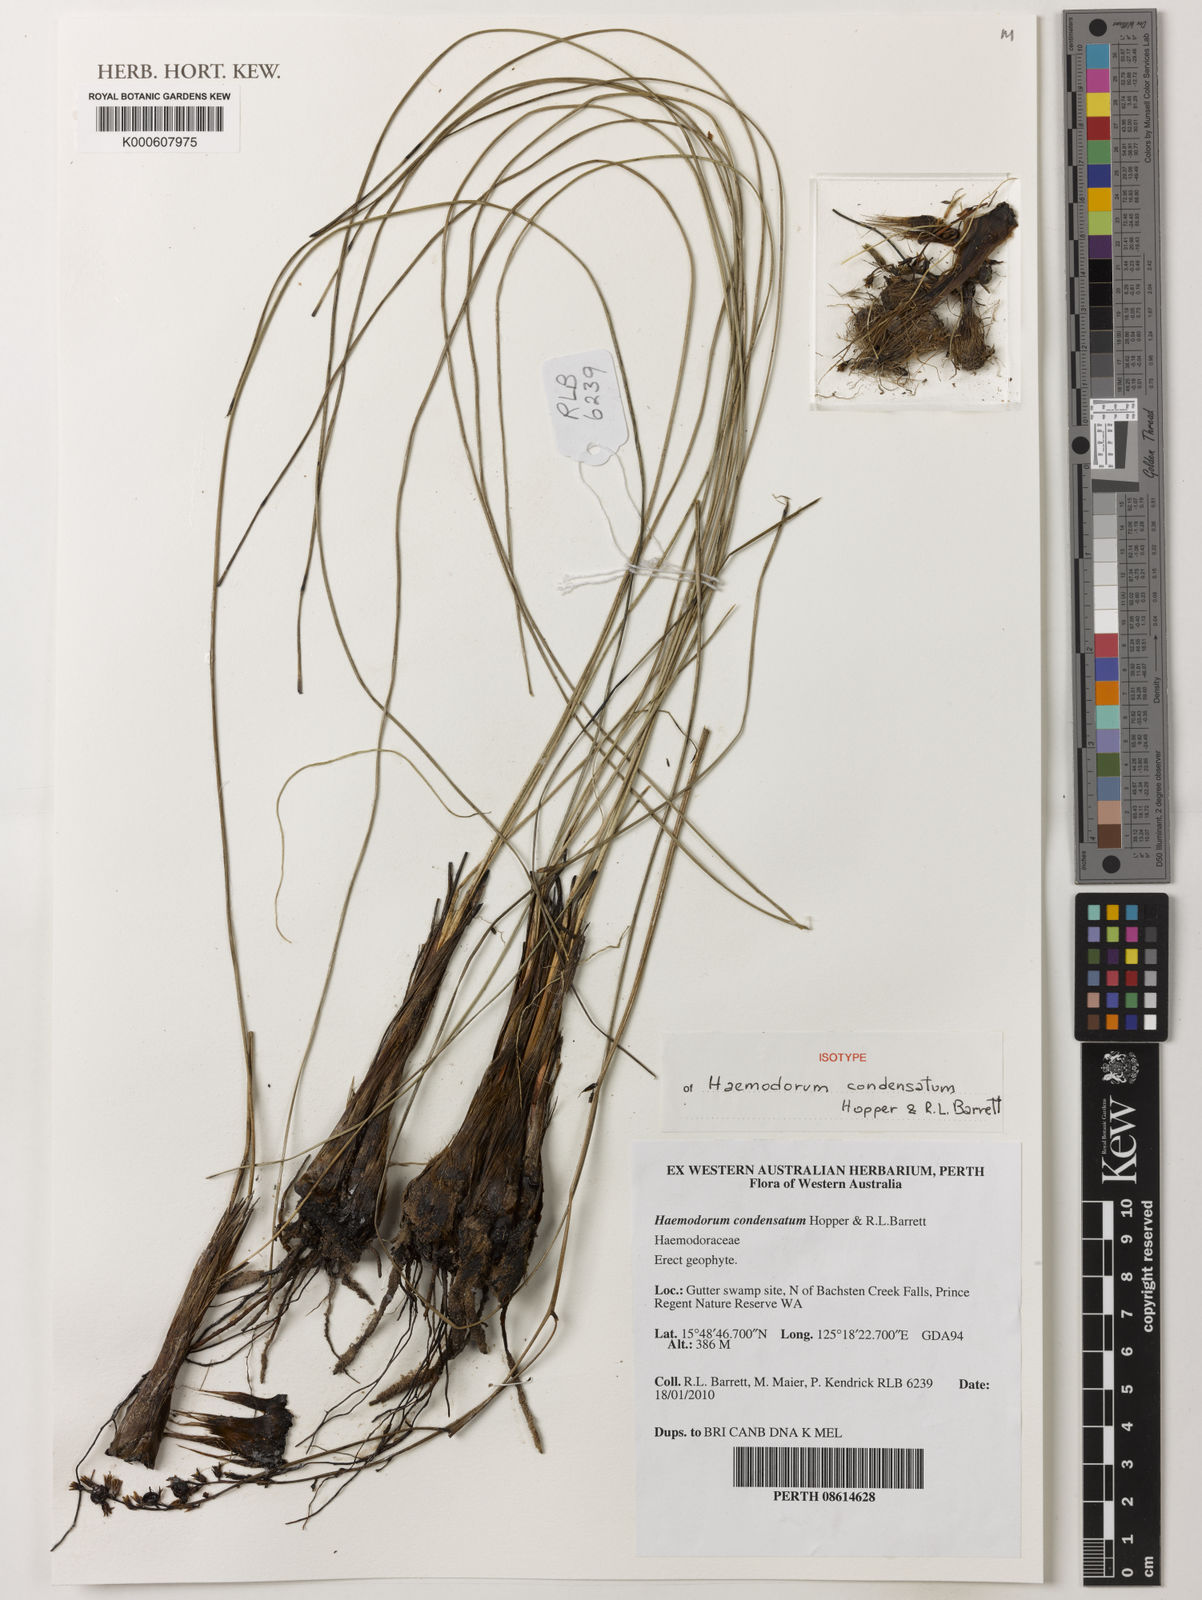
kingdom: Plantae
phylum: Tracheophyta
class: Liliopsida
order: Commelinales
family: Haemodoraceae
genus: Haemodorum
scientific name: Haemodorum condensatum
